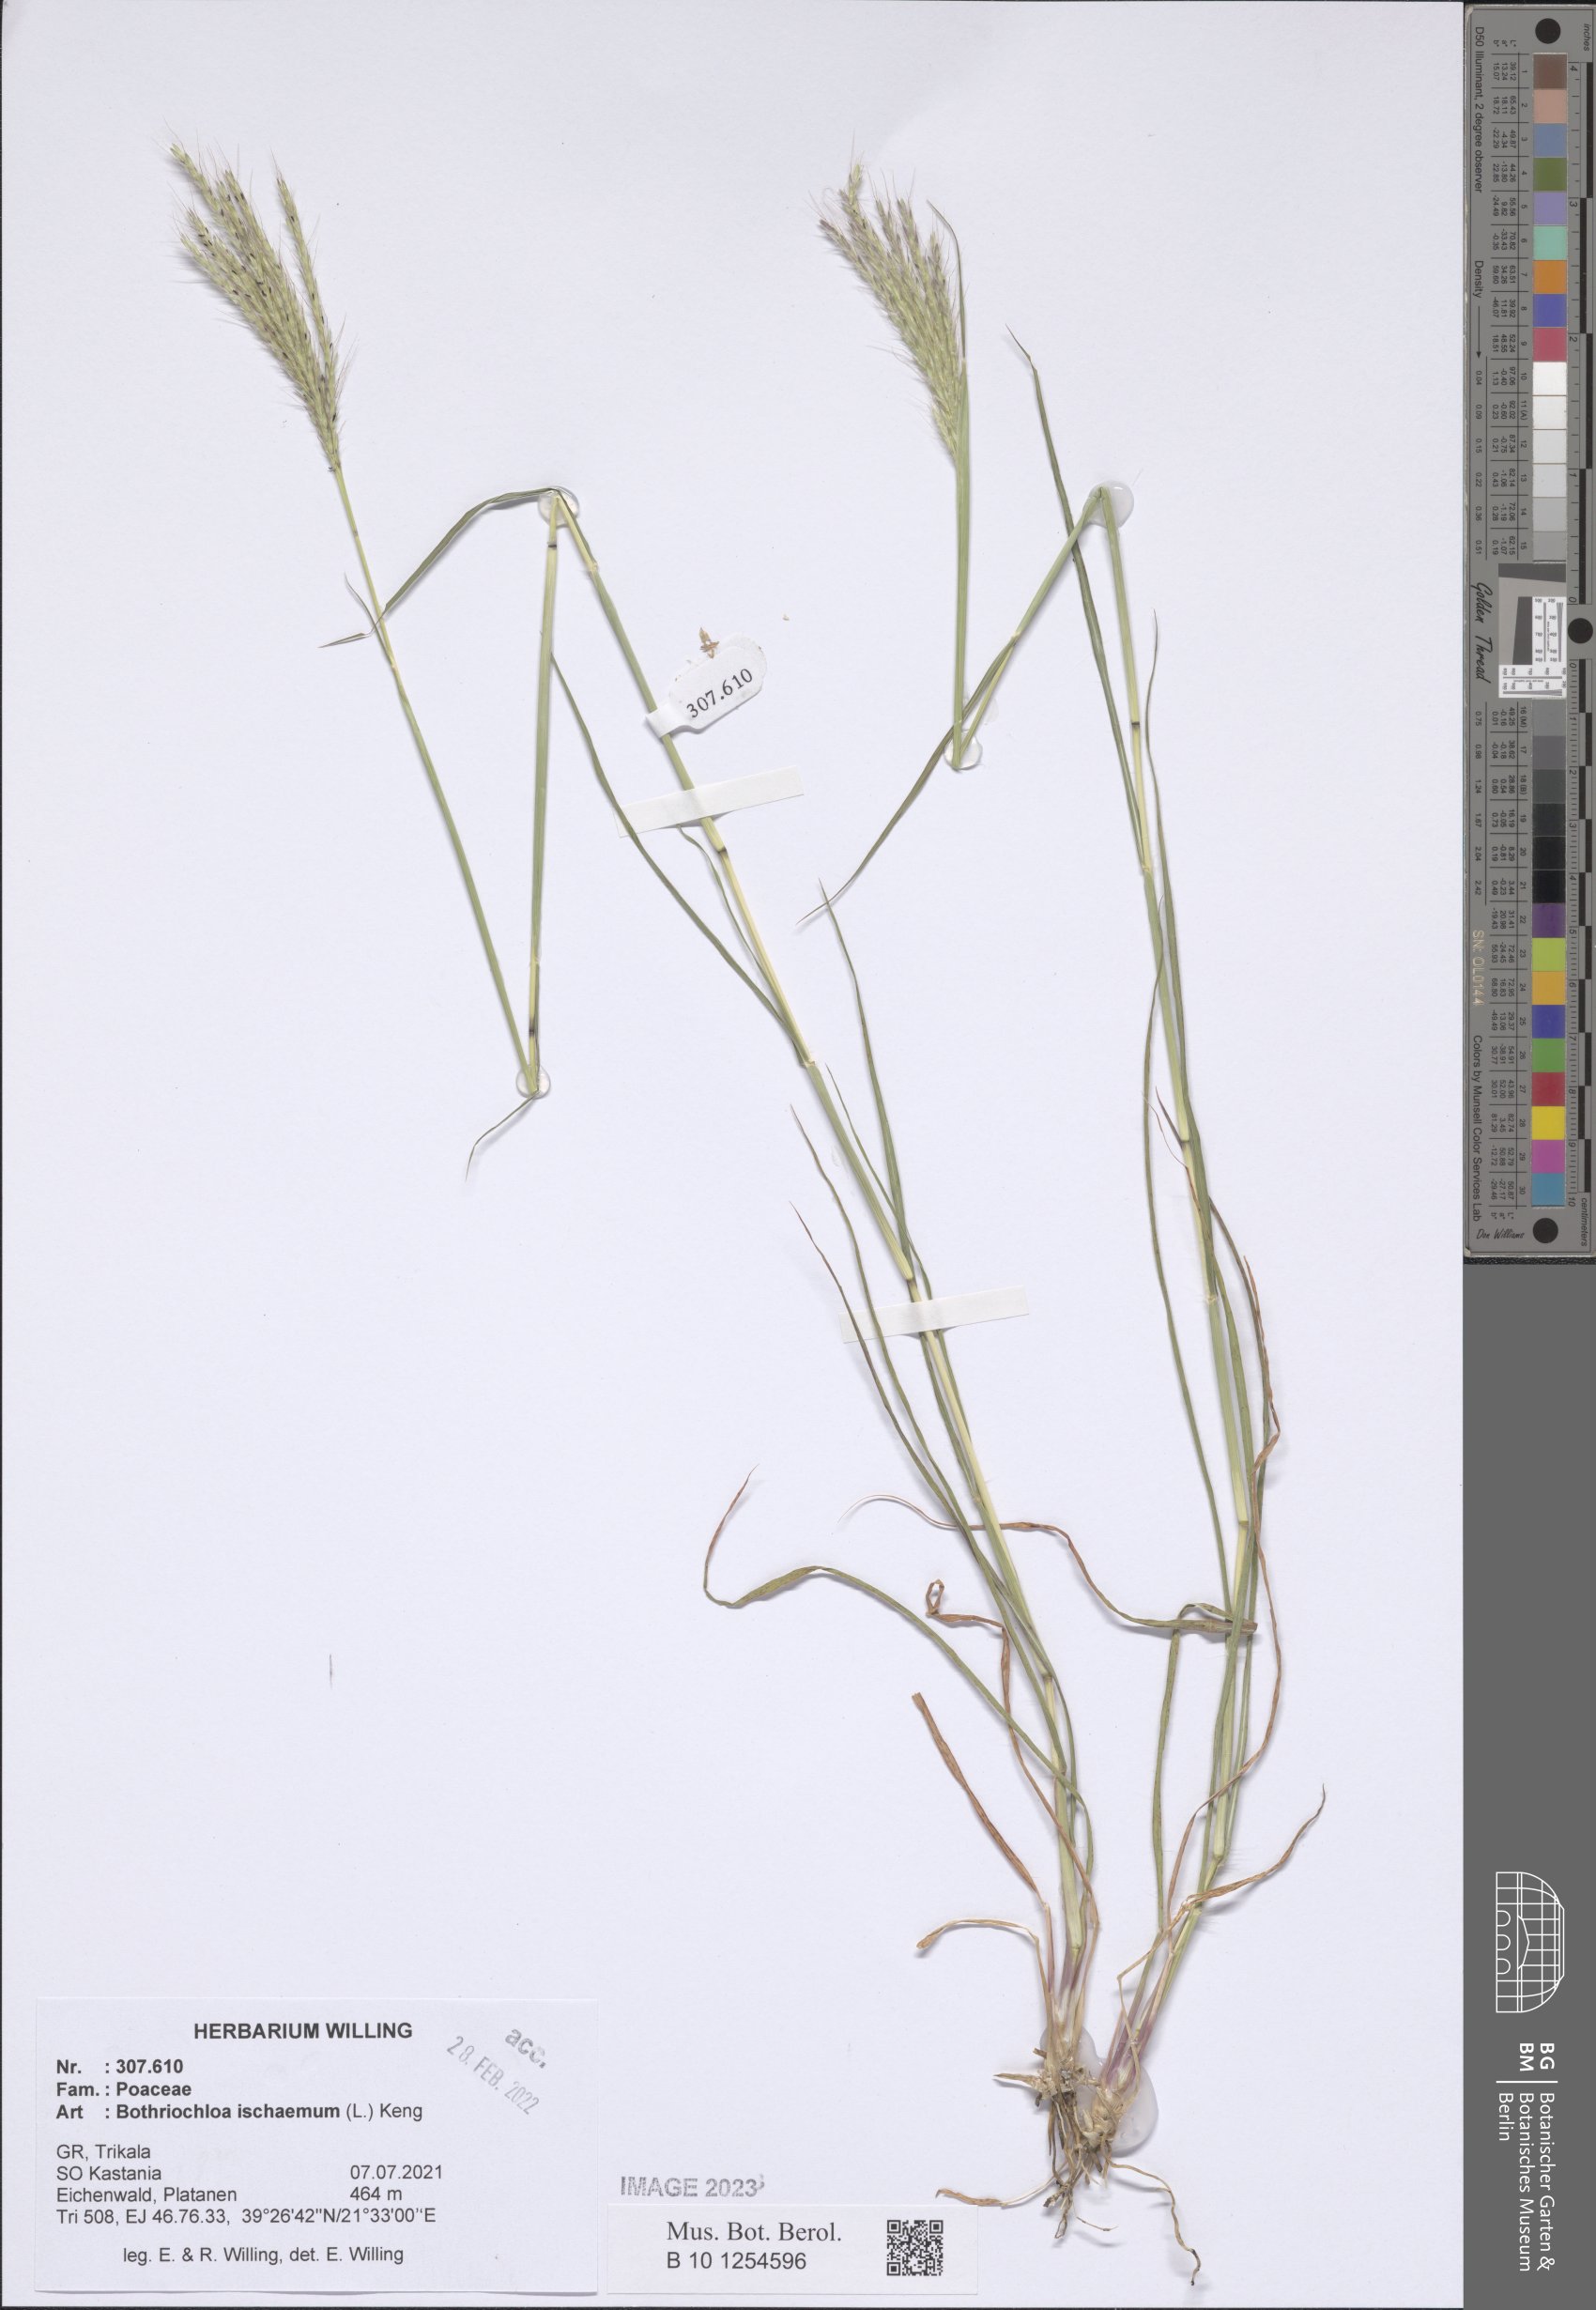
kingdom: Plantae
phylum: Tracheophyta
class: Liliopsida
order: Poales
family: Poaceae
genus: Bothriochloa
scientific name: Bothriochloa ischaemum
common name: Yellow bluestem
